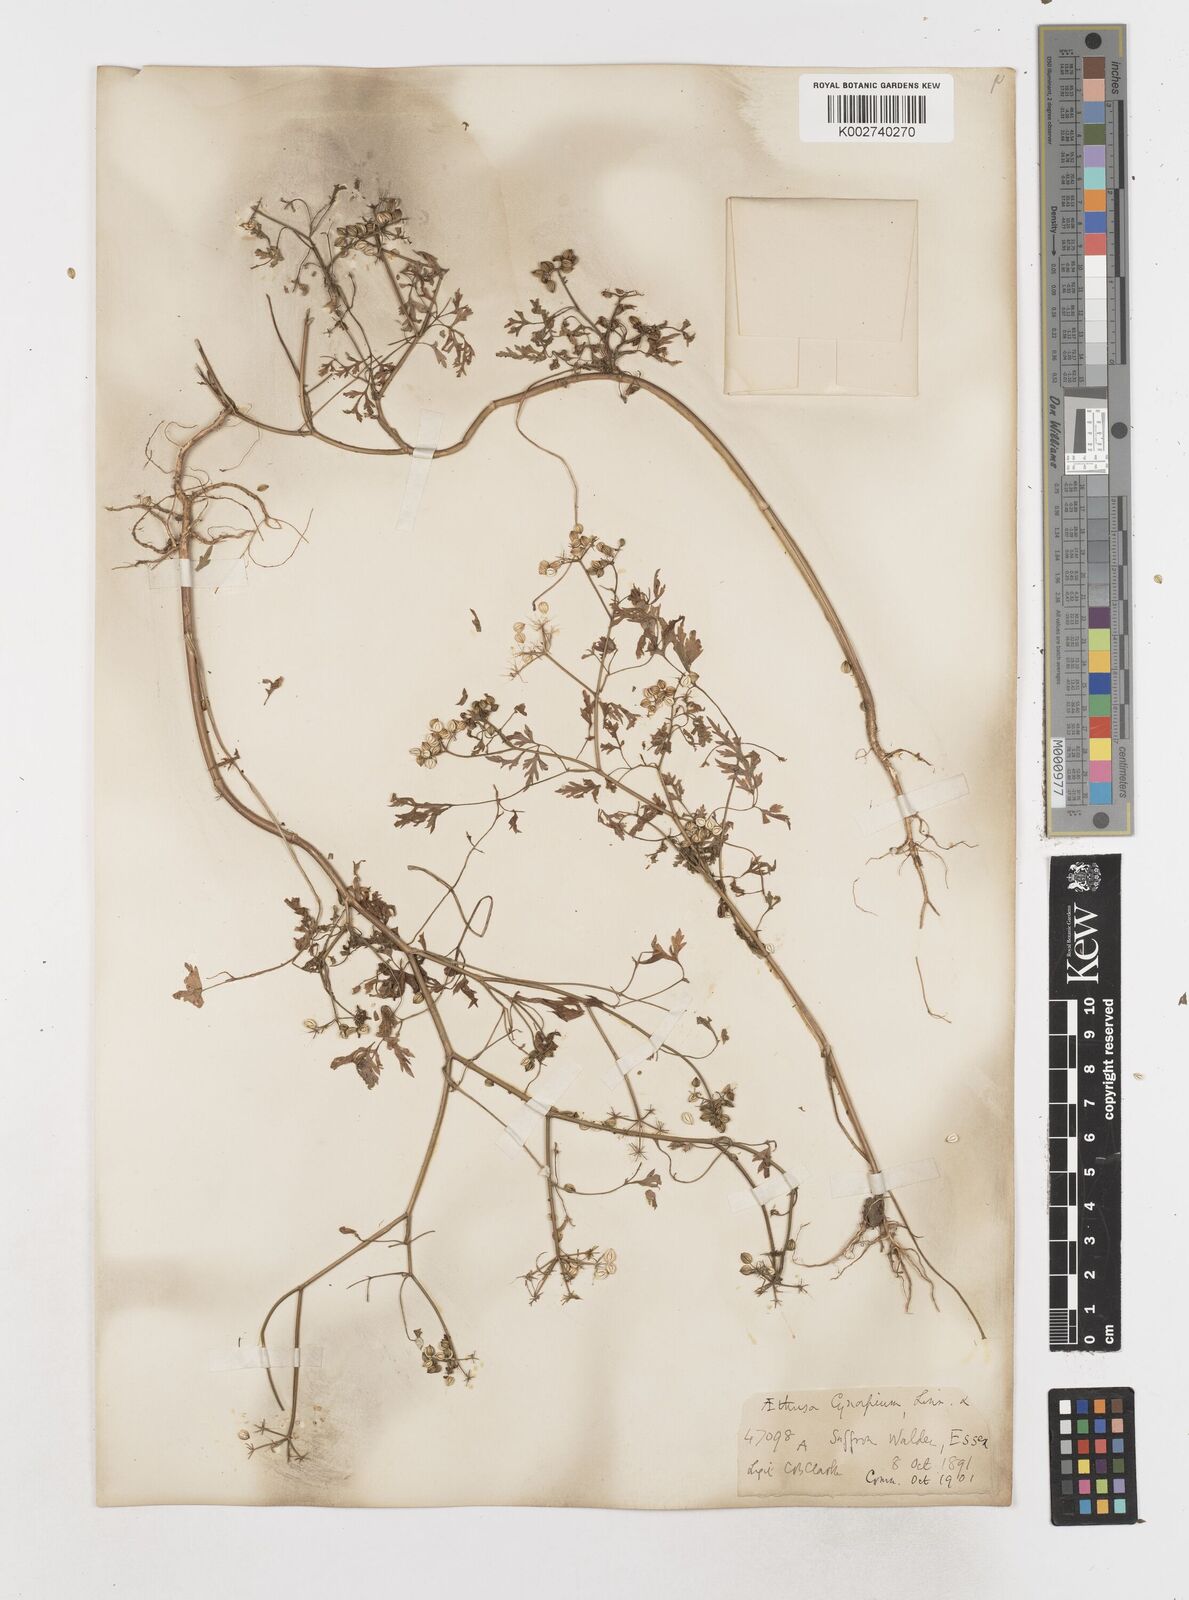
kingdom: Plantae
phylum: Tracheophyta
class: Magnoliopsida
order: Apiales
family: Apiaceae
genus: Aethusa
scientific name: Aethusa cynapium
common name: Fool's parsley
